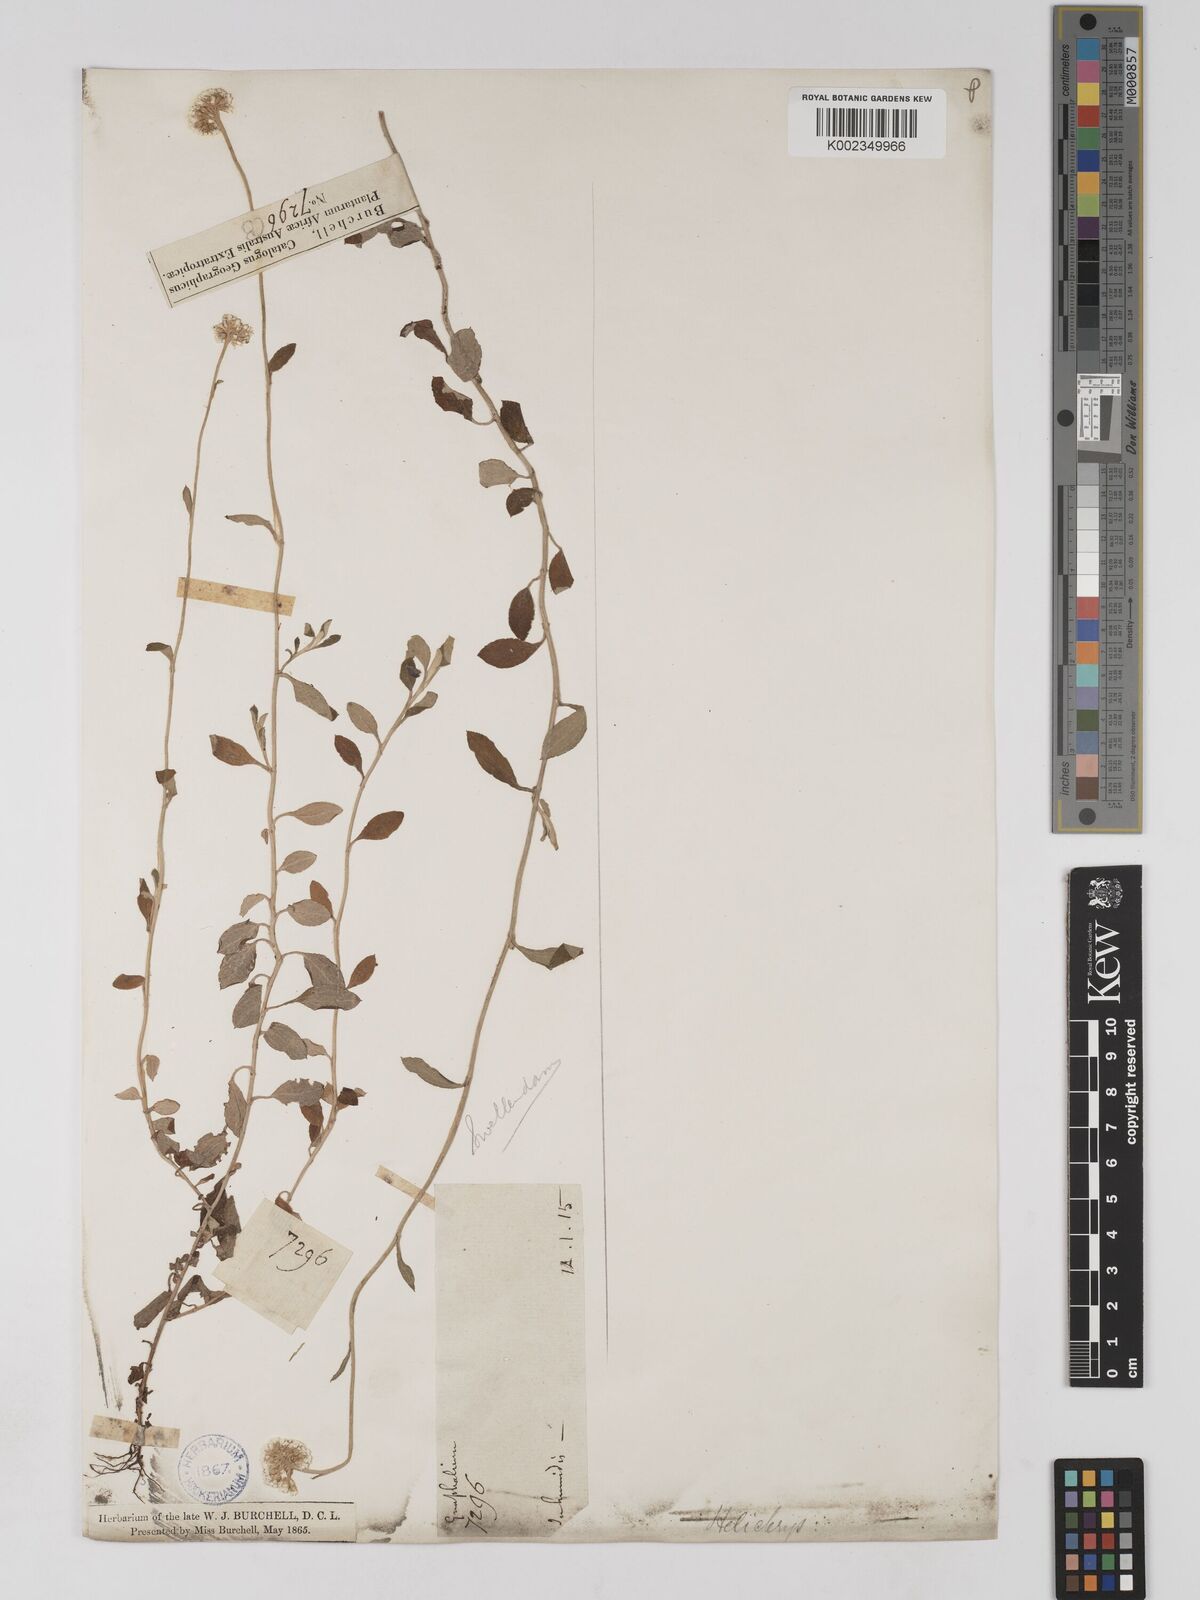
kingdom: Plantae
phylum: Tracheophyta
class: Magnoliopsida
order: Asterales
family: Asteraceae
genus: Helichrysum
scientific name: Helichrysum sphaeroideum
